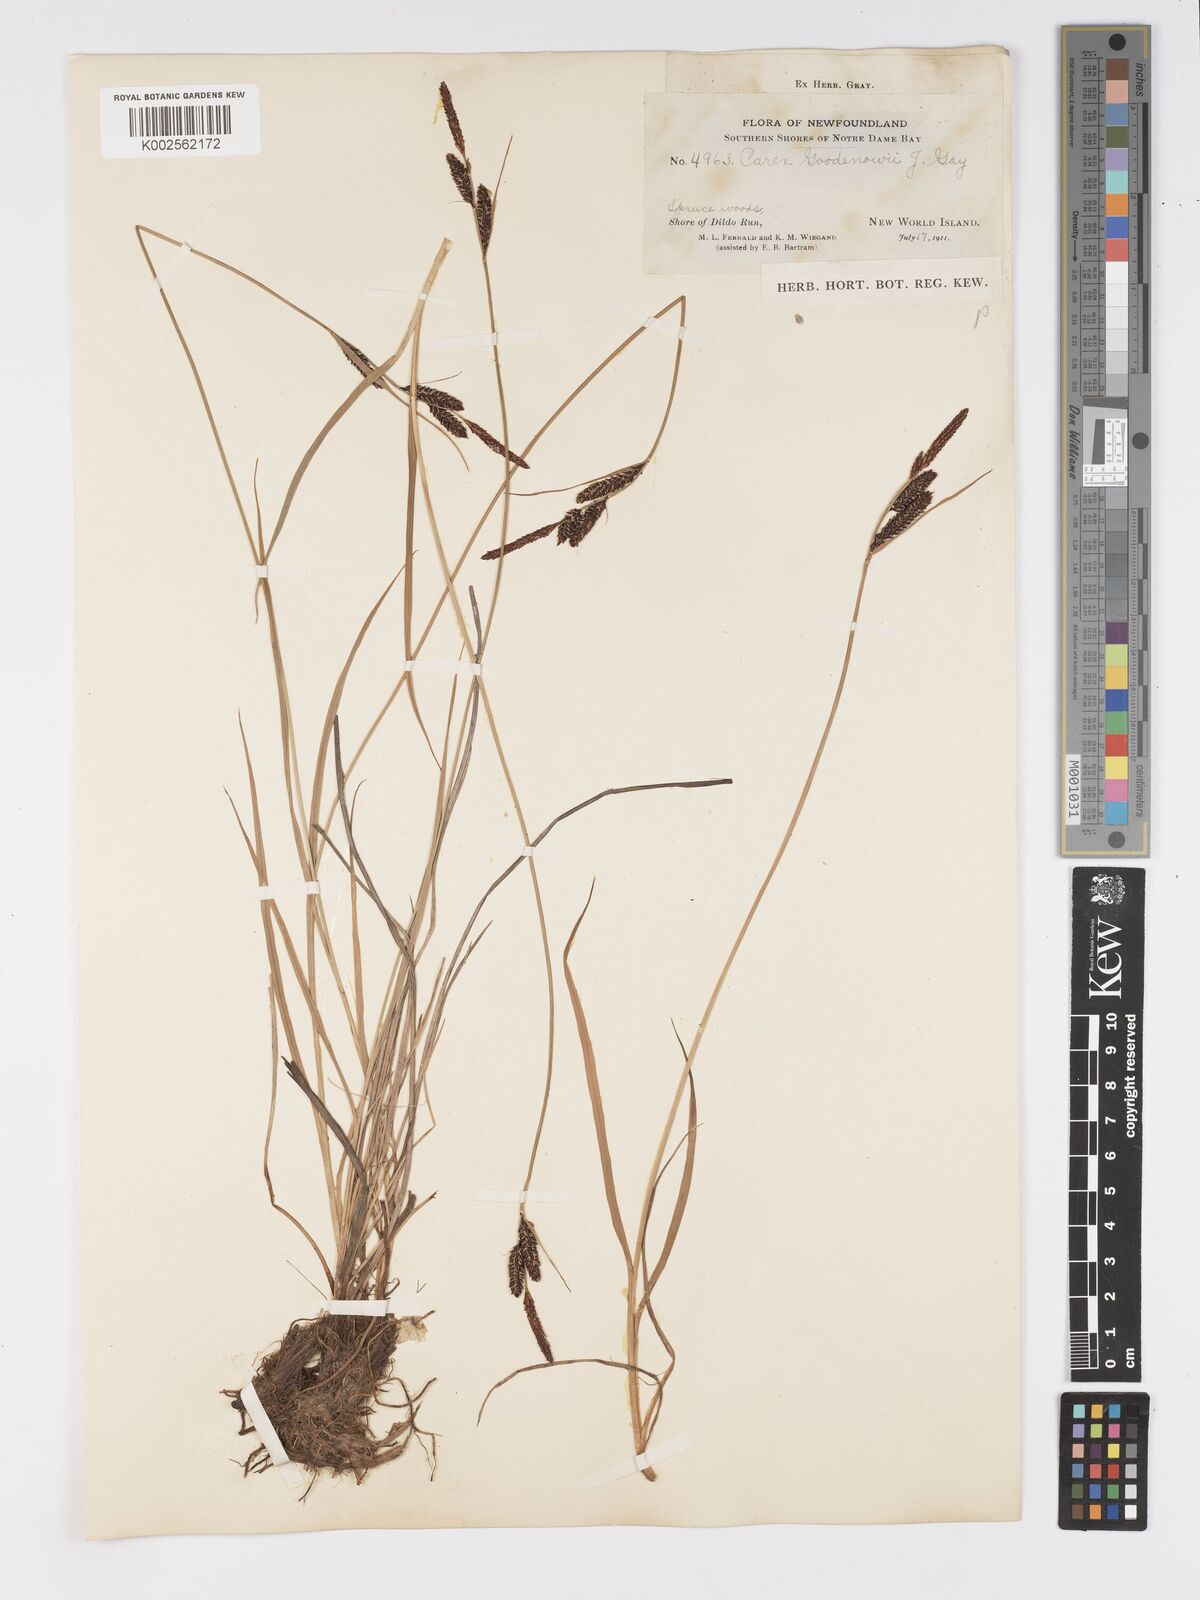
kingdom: Plantae
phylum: Tracheophyta
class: Liliopsida
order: Poales
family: Cyperaceae
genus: Carex
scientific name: Carex nigra
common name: Common sedge
